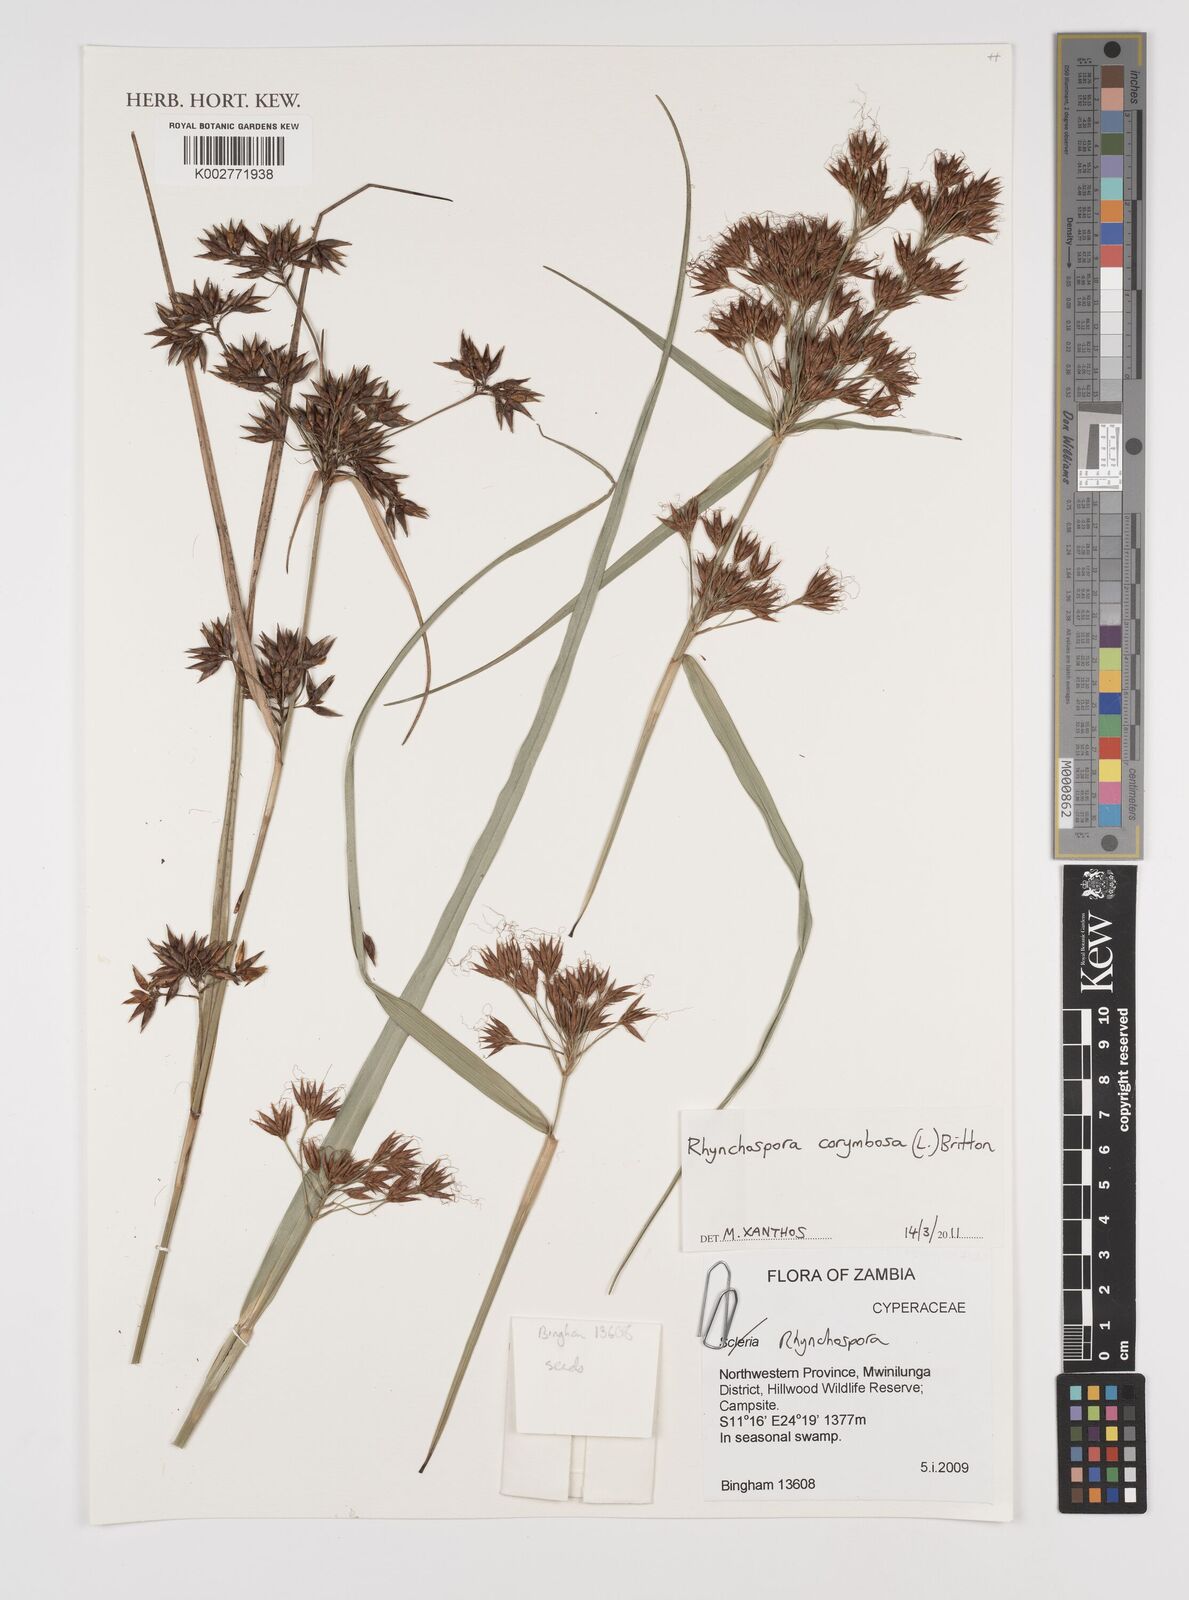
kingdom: Plantae
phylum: Tracheophyta
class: Liliopsida
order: Poales
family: Cyperaceae
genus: Rhynchospora
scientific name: Rhynchospora corymbosa
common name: Golden beak sedge
